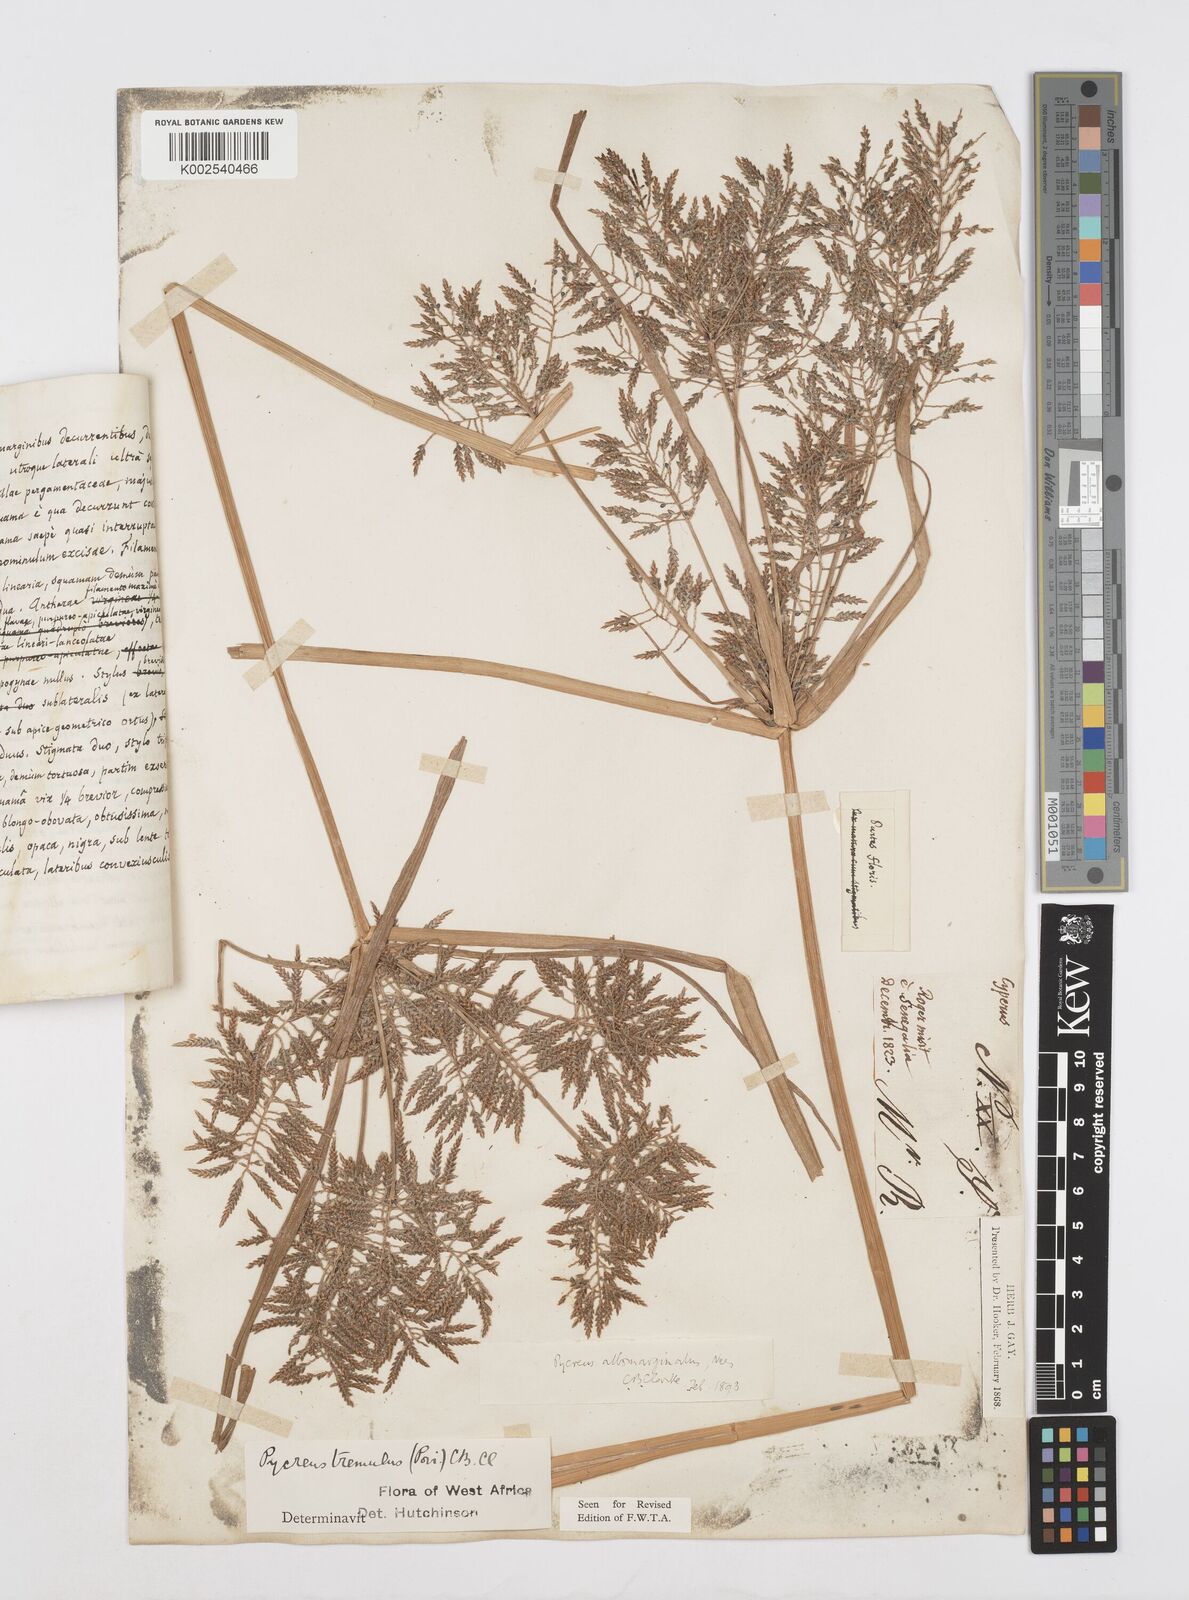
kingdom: Plantae
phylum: Tracheophyta
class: Liliopsida
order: Poales
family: Cyperaceae
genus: Cyperus
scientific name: Cyperus macrostachyos
